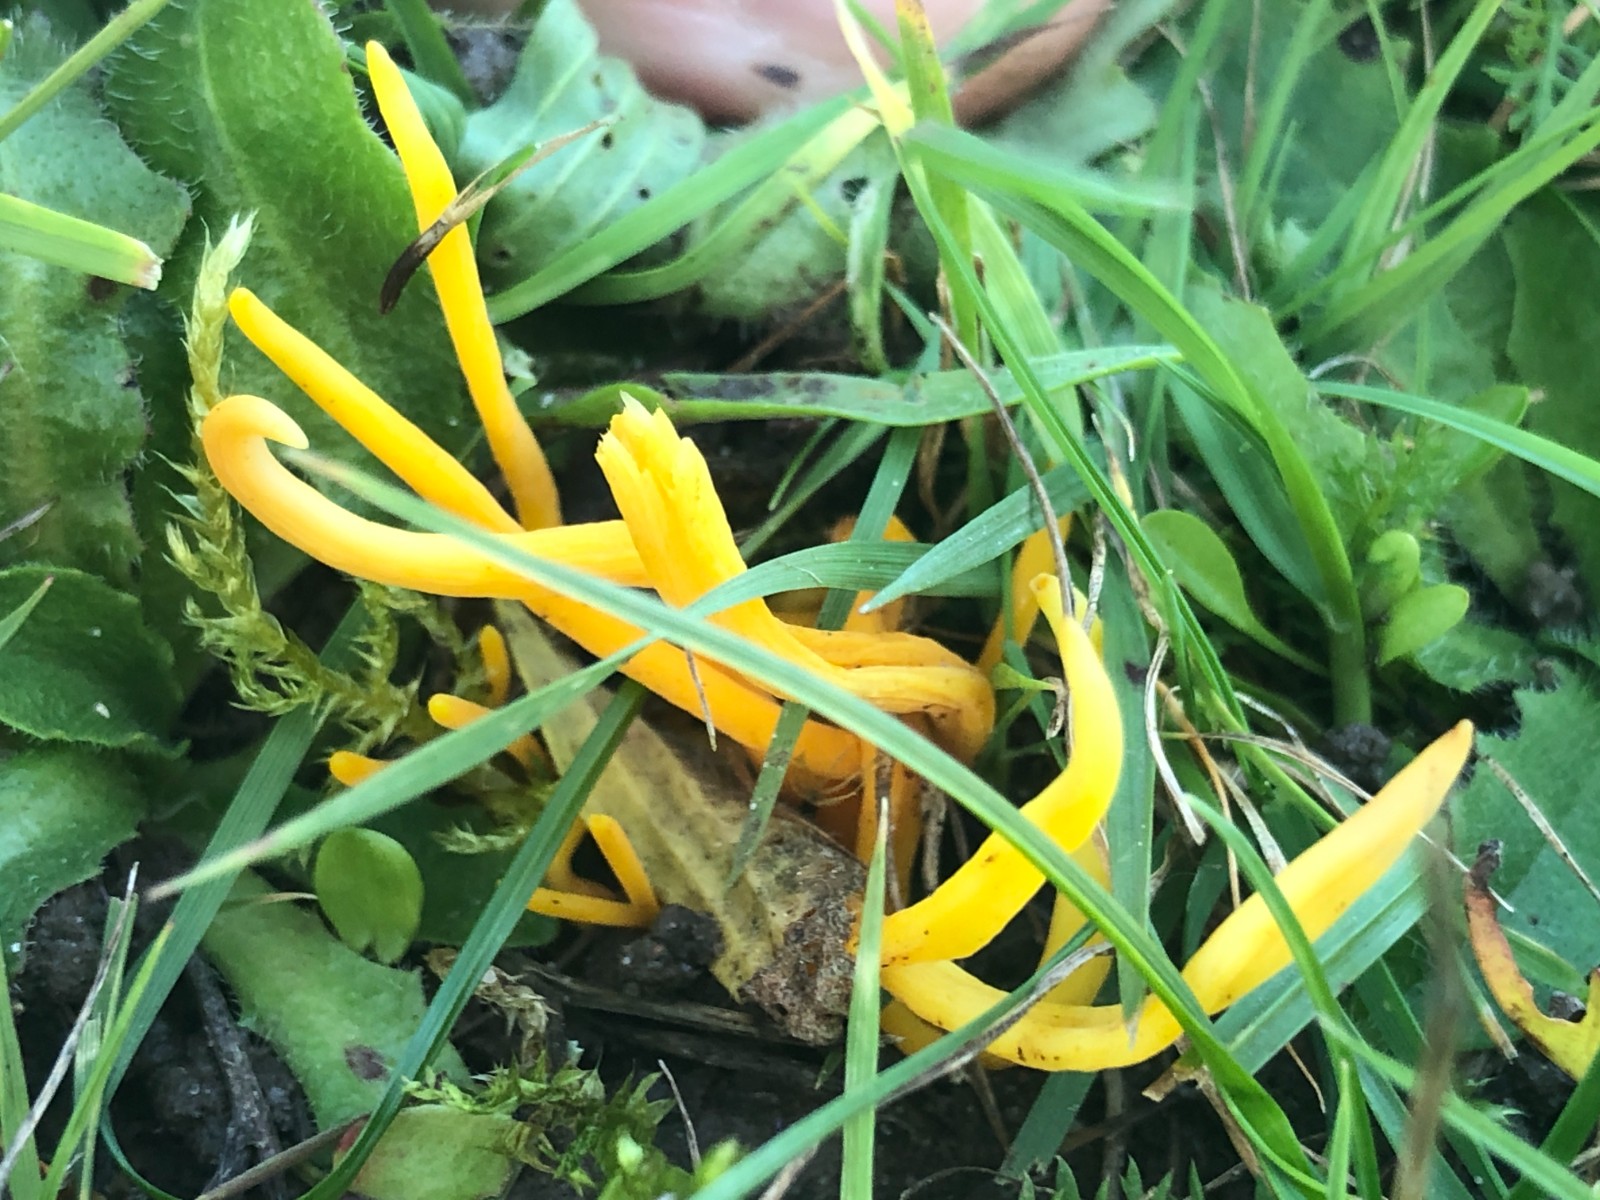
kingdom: Fungi
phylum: Basidiomycota
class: Agaricomycetes
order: Agaricales
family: Clavariaceae
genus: Clavulinopsis
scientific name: Clavulinopsis
